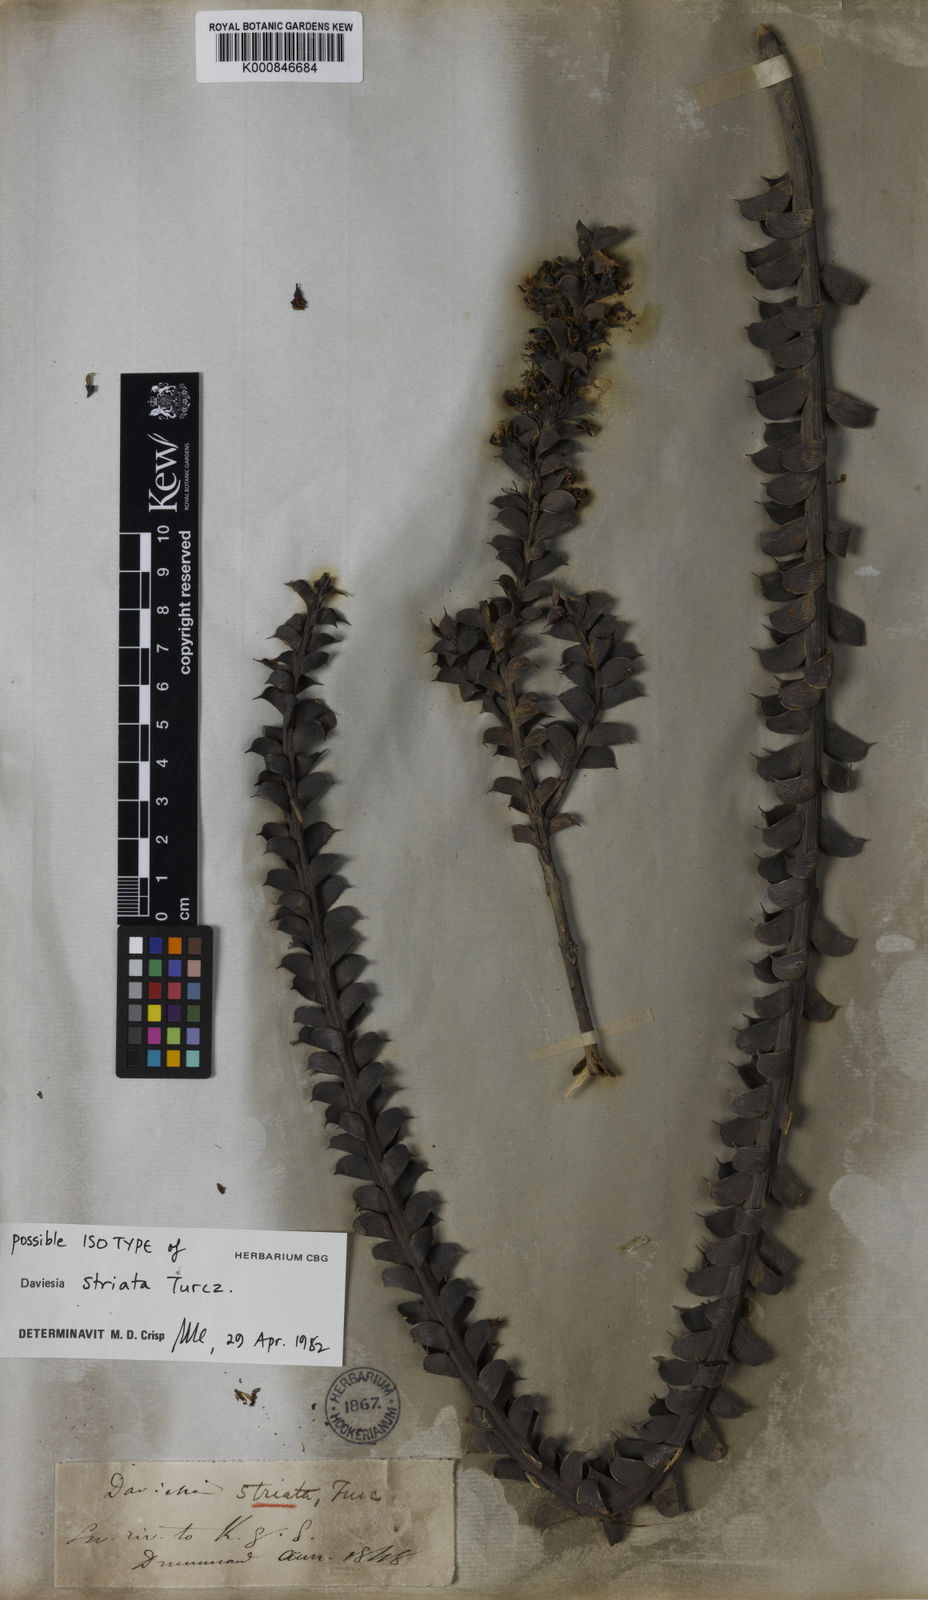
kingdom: Plantae
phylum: Tracheophyta
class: Magnoliopsida
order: Fabales
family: Fabaceae
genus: Daviesia
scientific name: Daviesia striata
